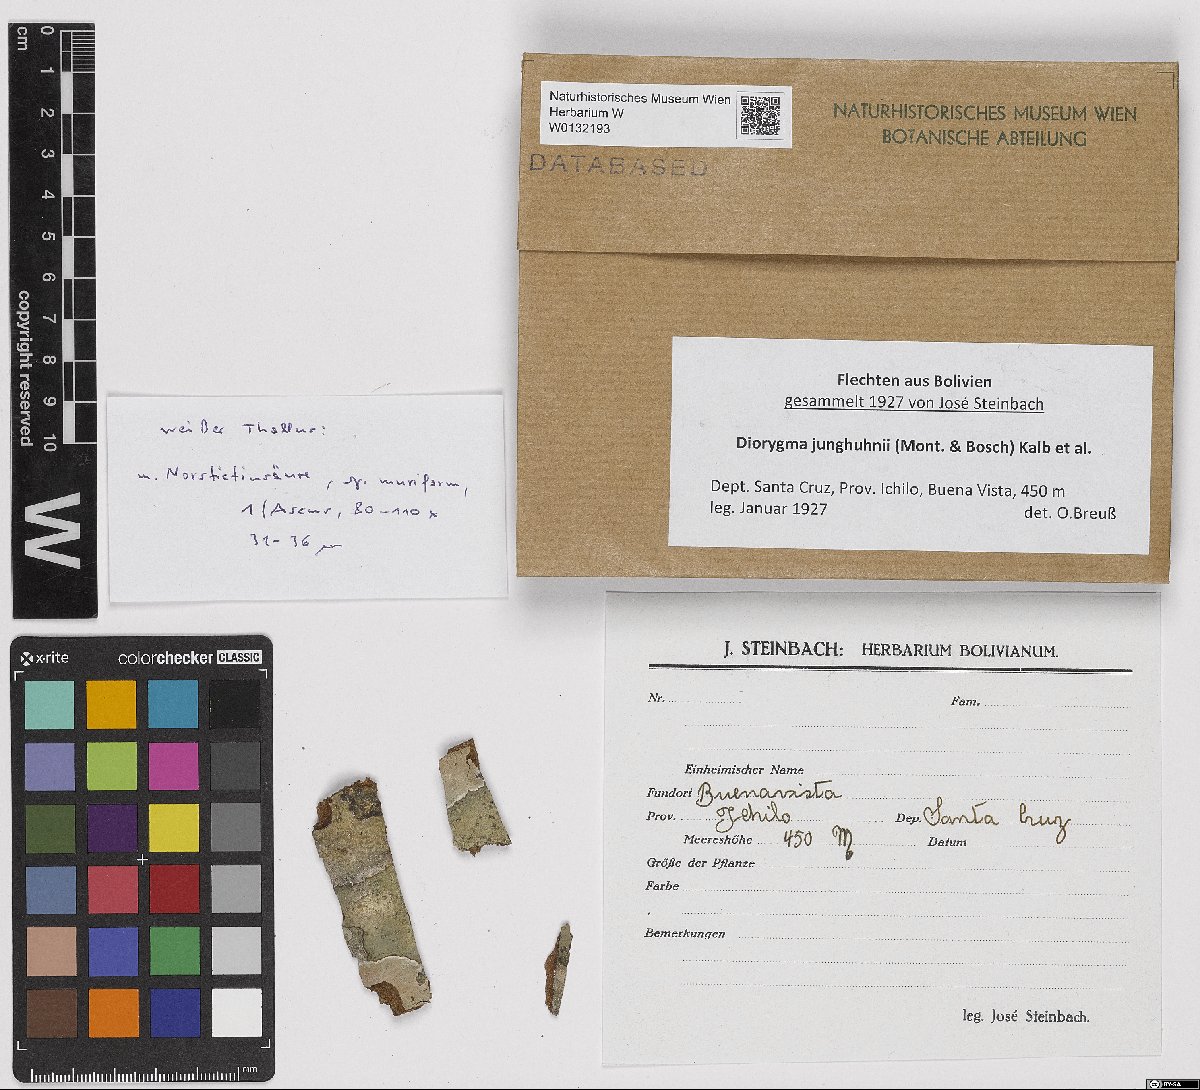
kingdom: Fungi
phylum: Ascomycota
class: Lecanoromycetes
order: Ostropales
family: Graphidaceae
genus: Diorygma
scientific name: Diorygma junghuhnii
